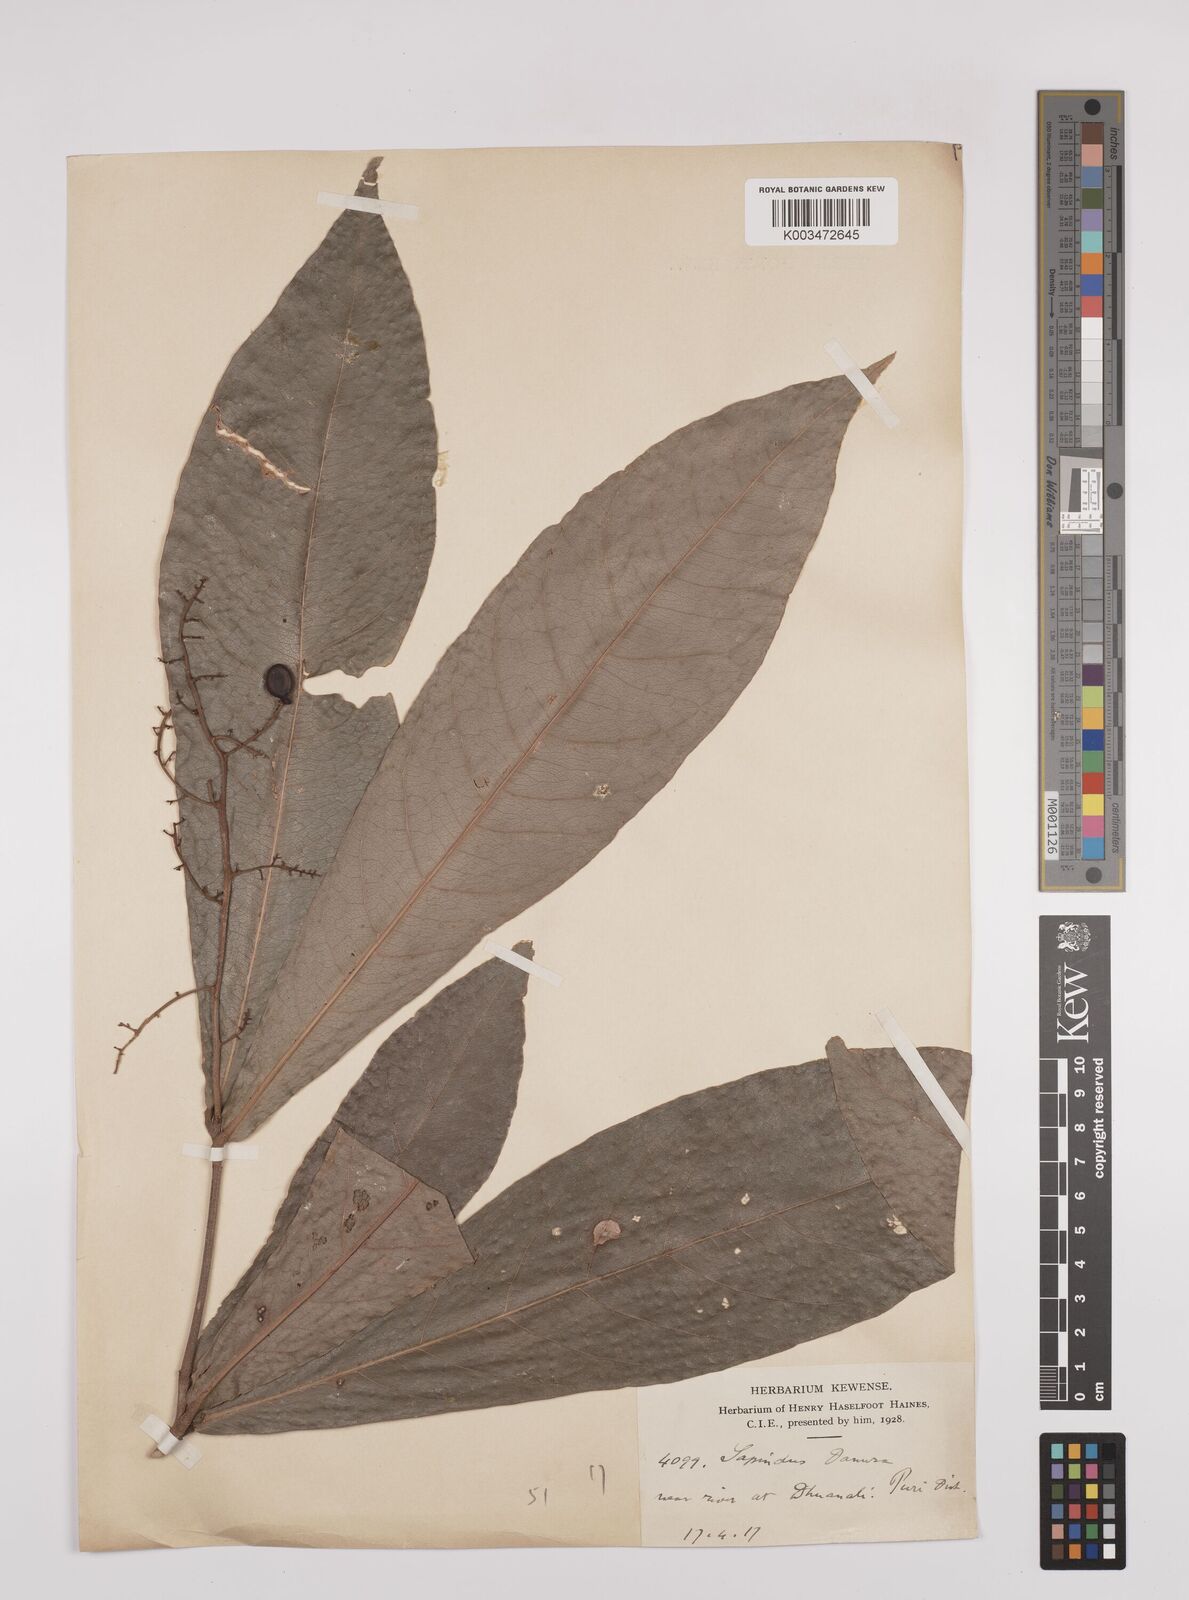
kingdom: Plantae
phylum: Tracheophyta
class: Magnoliopsida
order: Sapindales
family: Sapindaceae
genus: Lepisanthes
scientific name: Lepisanthes senegalensis
